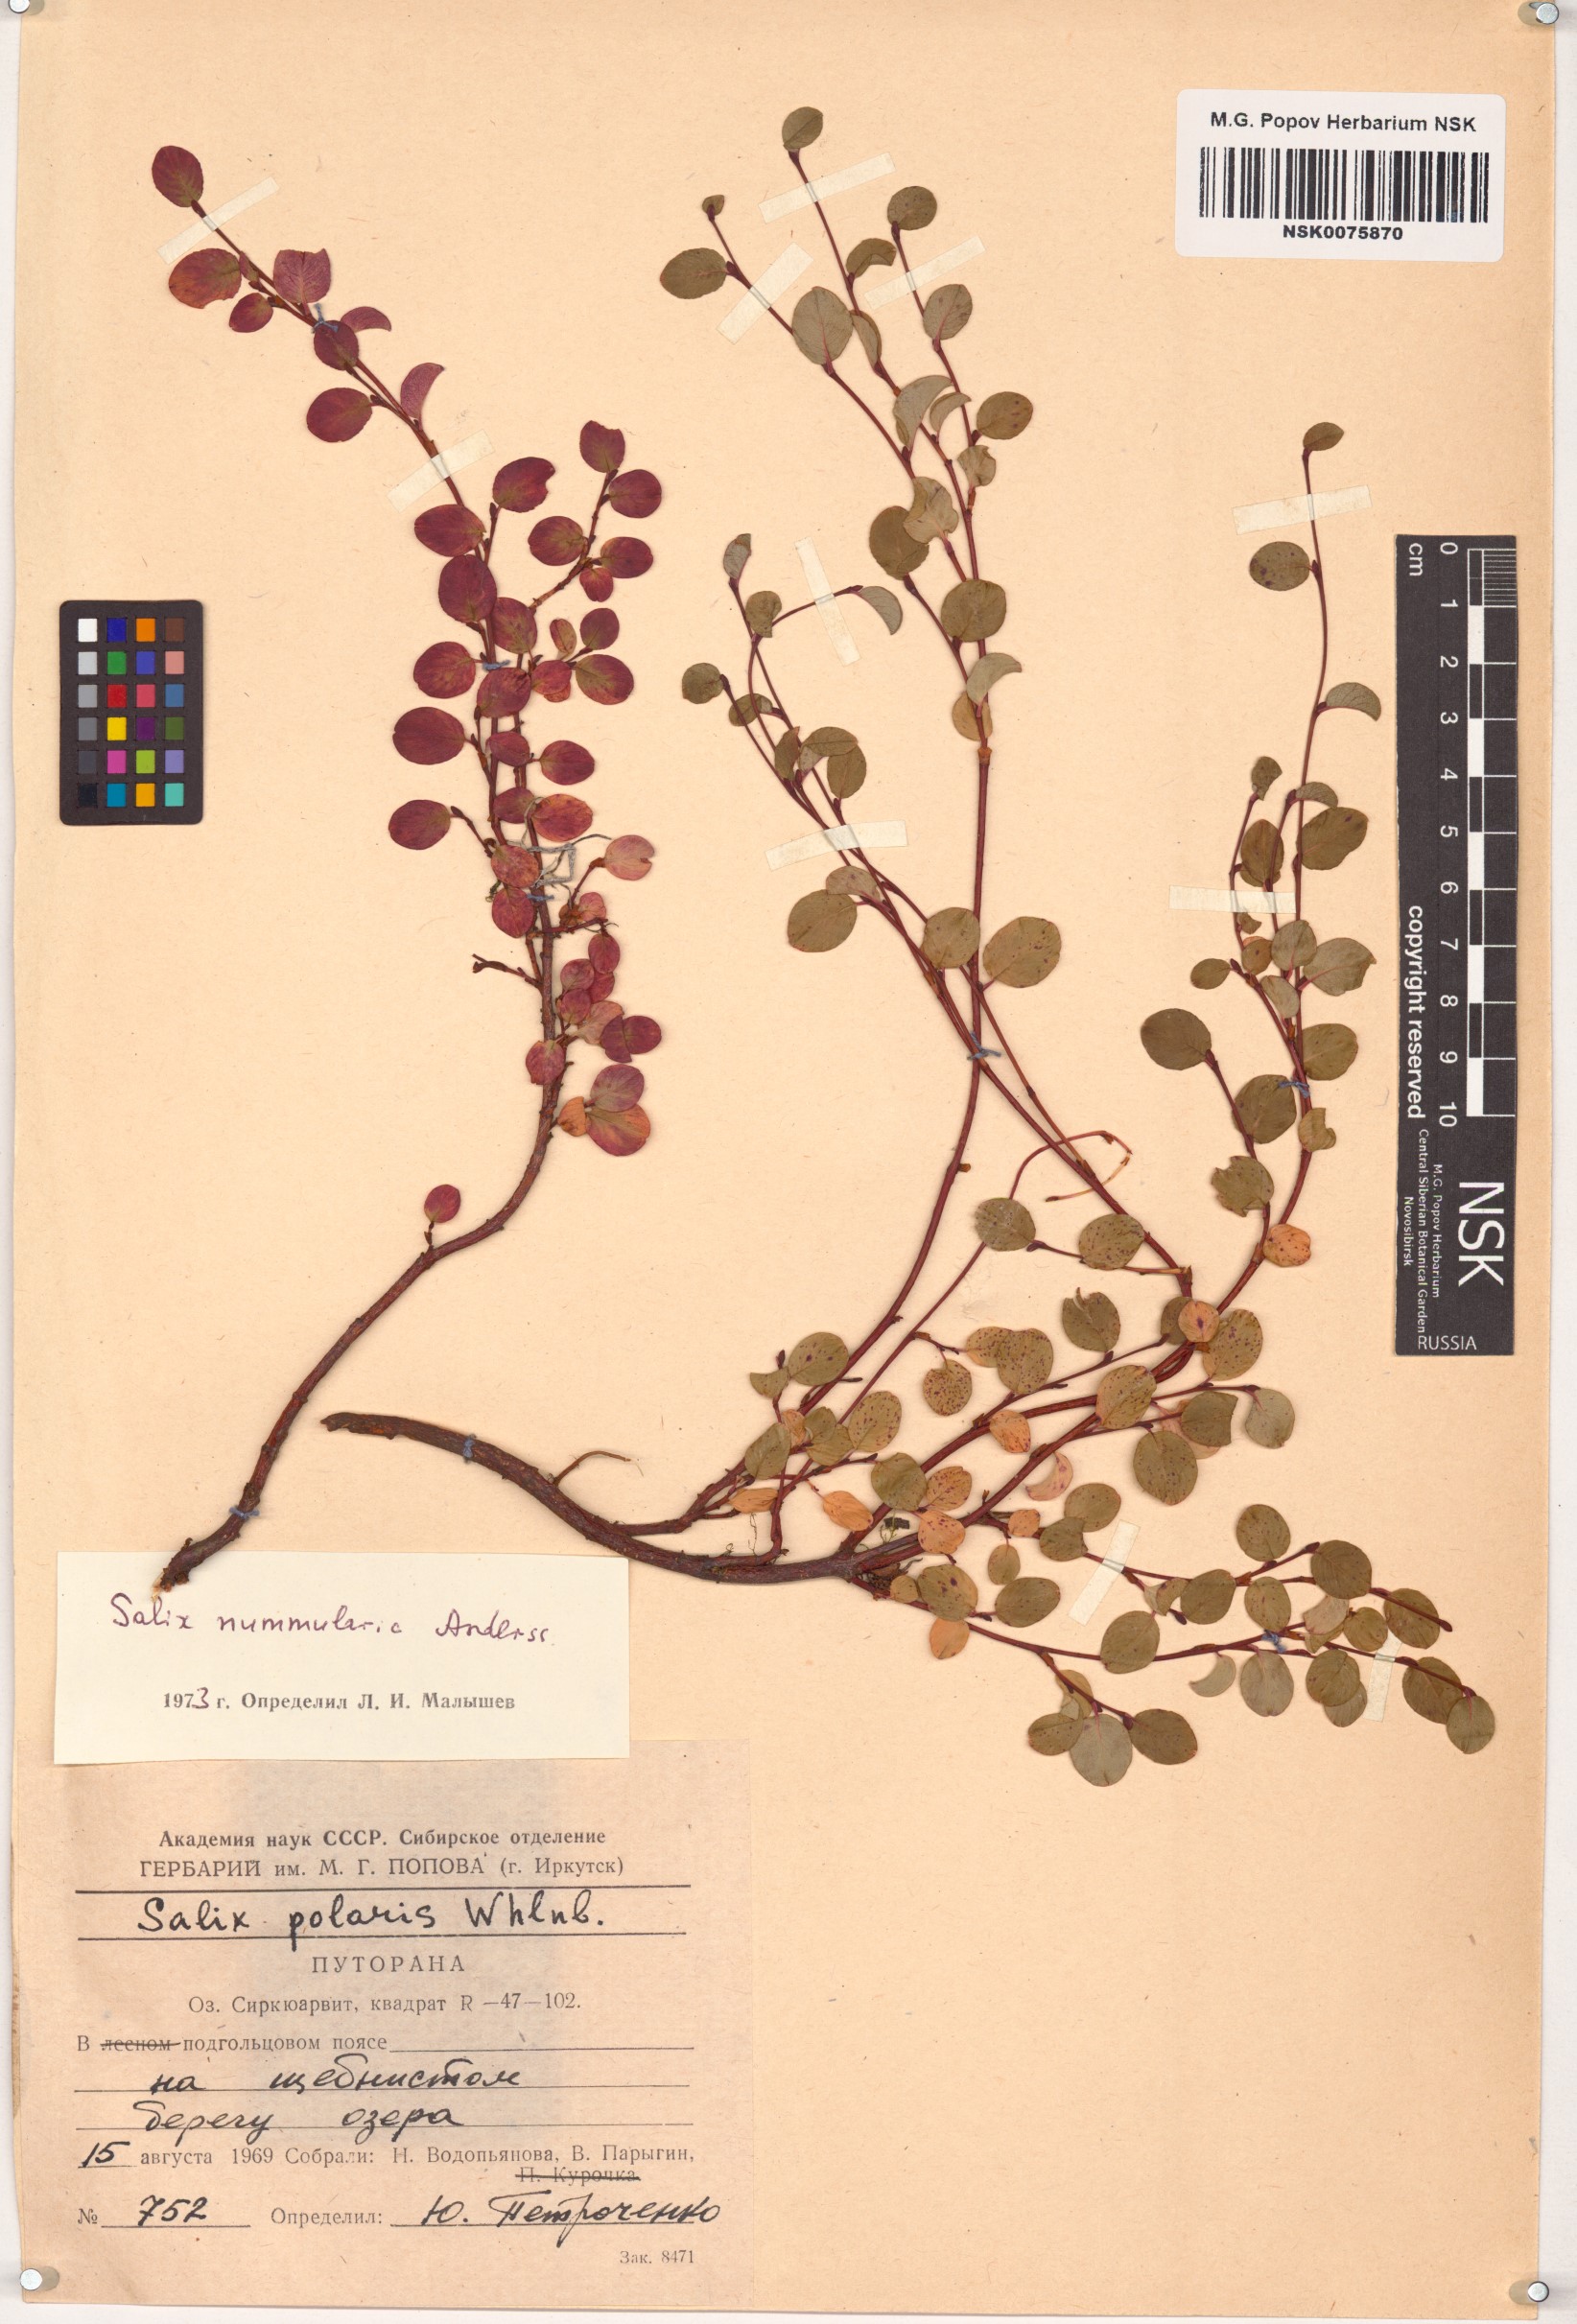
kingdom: Plantae
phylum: Tracheophyta
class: Magnoliopsida
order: Malpighiales
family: Salicaceae
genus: Salix
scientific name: Salix nummularia
